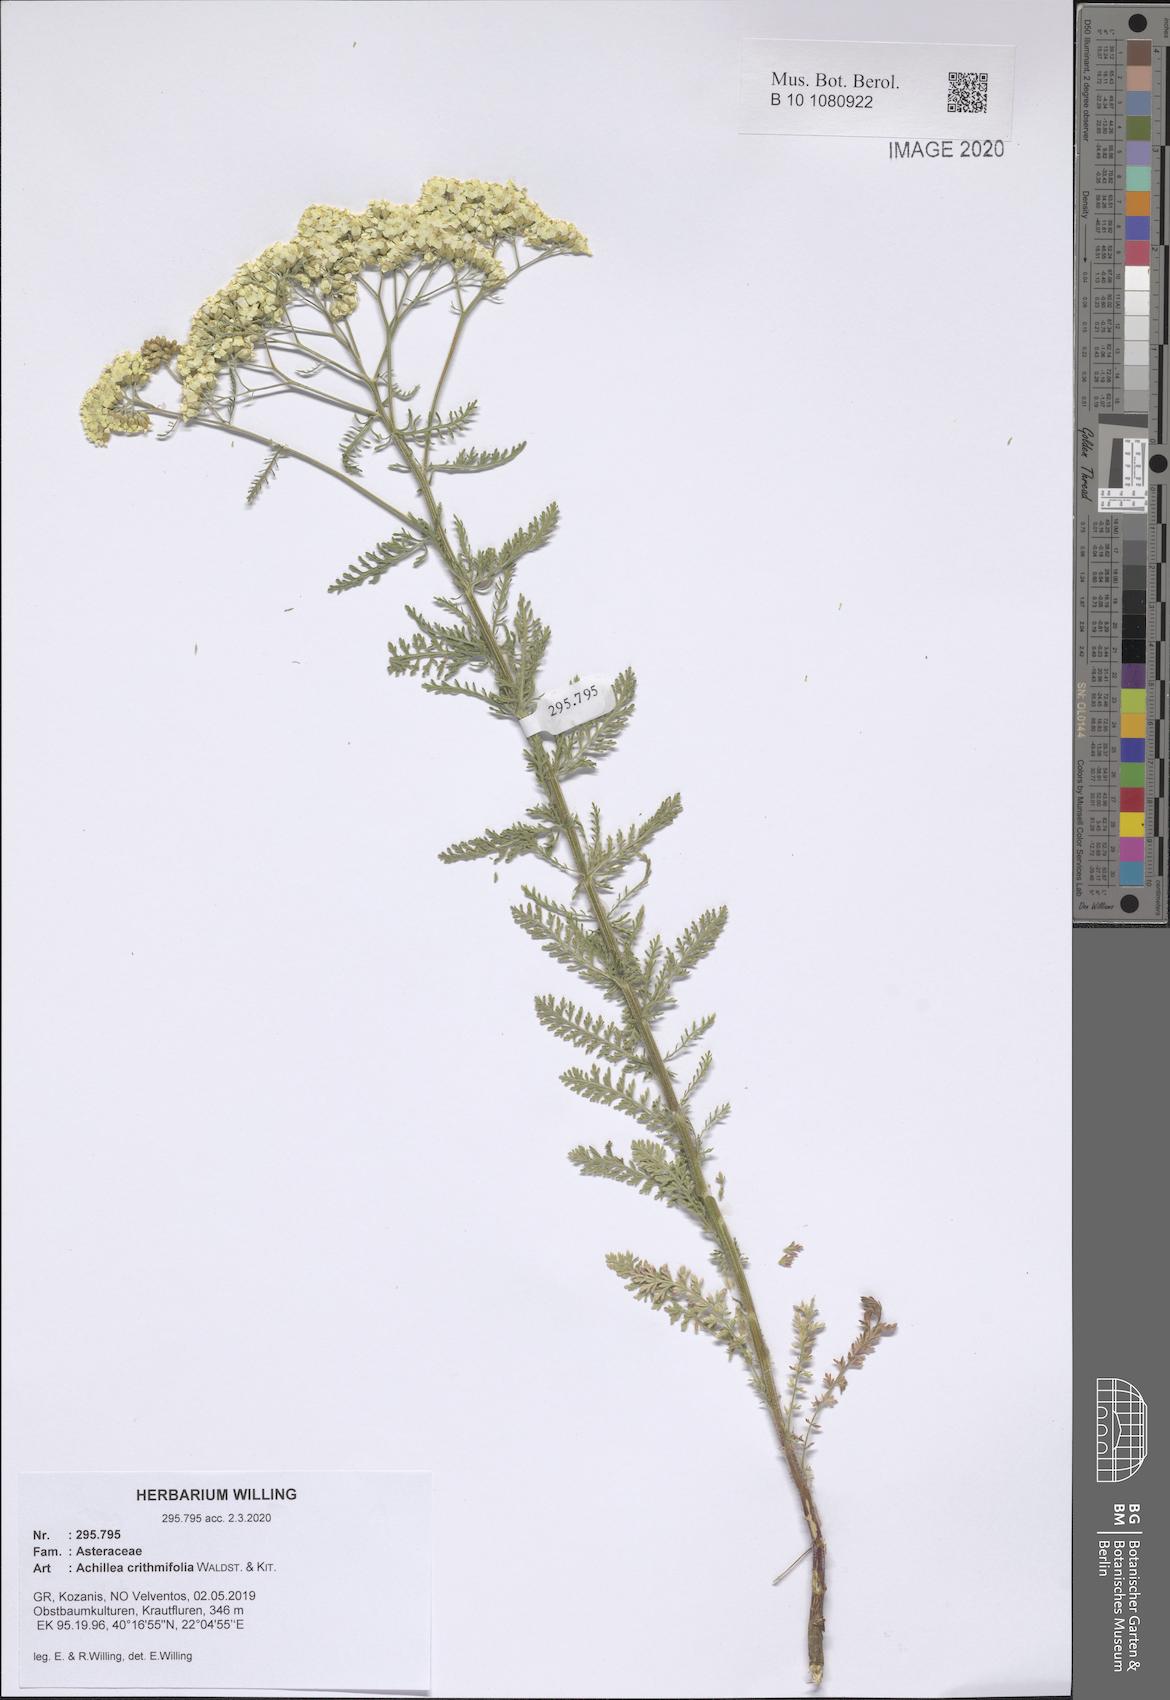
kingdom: Plantae
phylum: Tracheophyta
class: Magnoliopsida
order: Asterales
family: Asteraceae
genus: Achillea
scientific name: Achillea crithmifolia
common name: Yarrow
